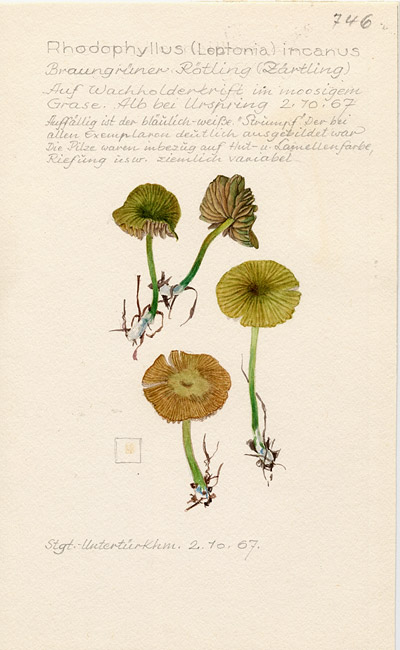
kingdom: Fungi
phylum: Basidiomycota
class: Agaricomycetes
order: Agaricales
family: Entolomataceae
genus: Entoloma
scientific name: Entoloma incanum
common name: Mousepee pinkgill
